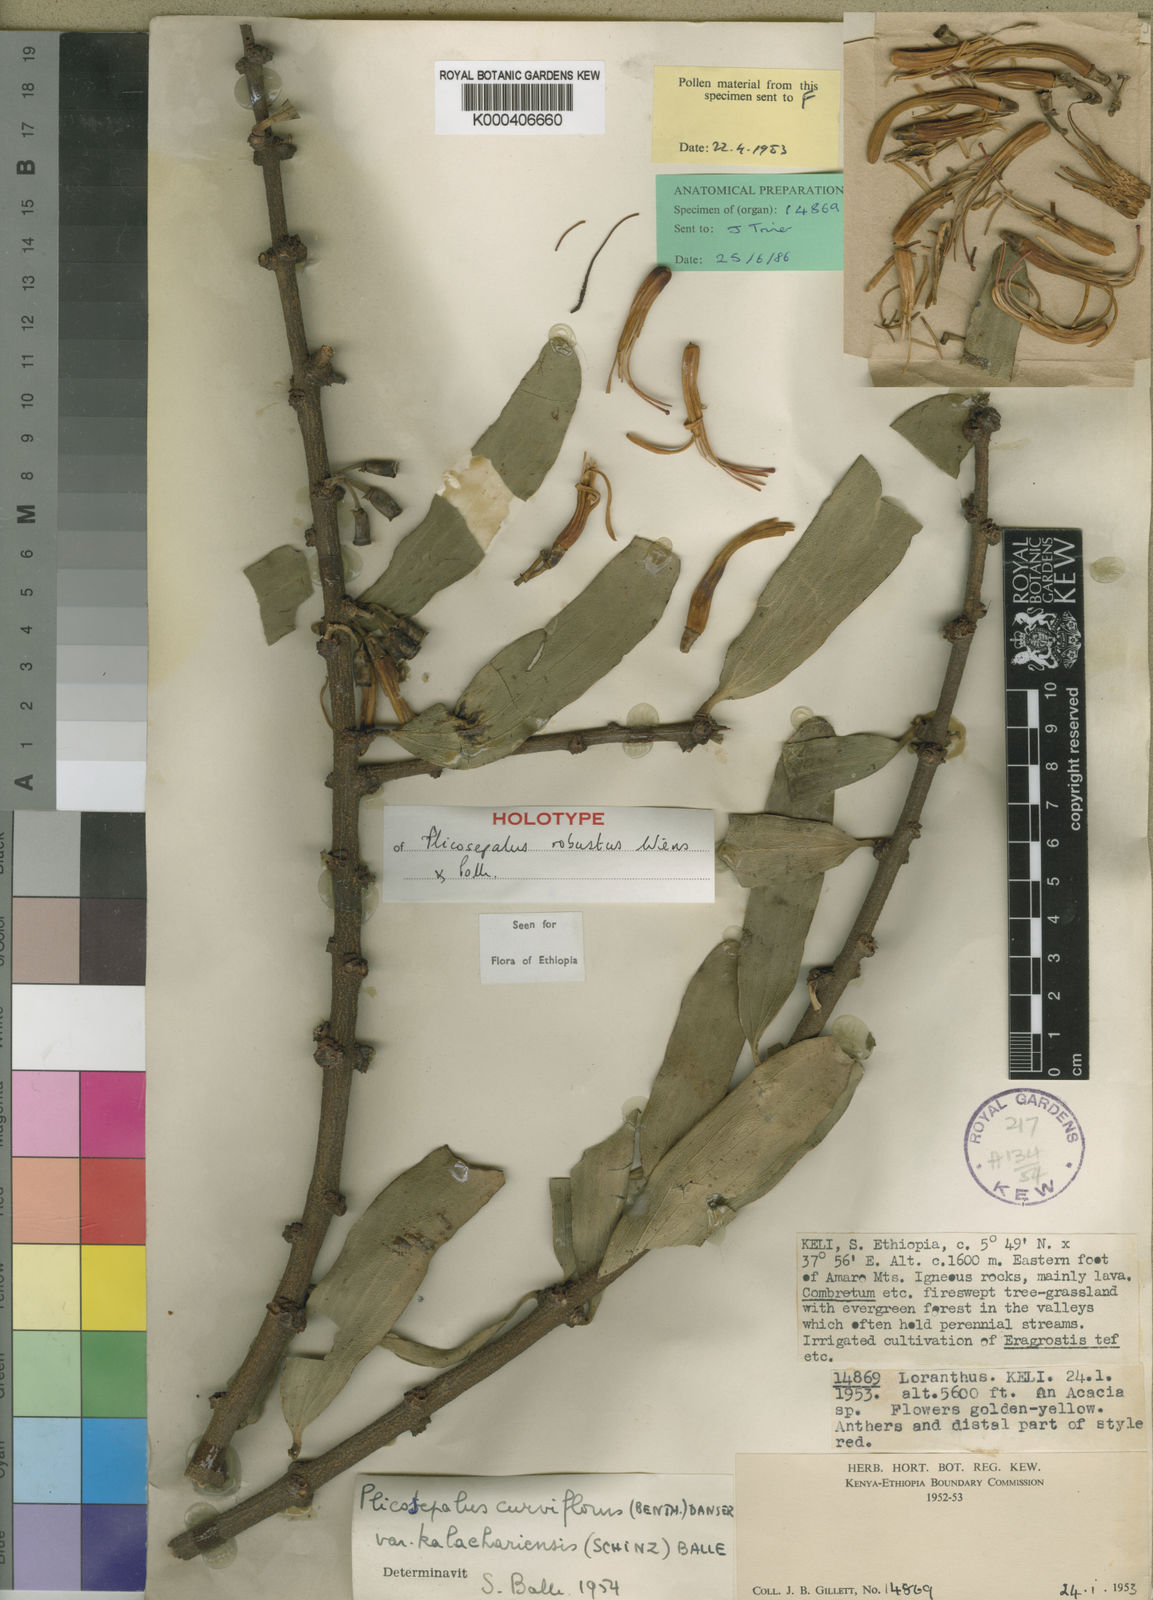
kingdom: Plantae
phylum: Tracheophyta
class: Magnoliopsida
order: Santalales
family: Loranthaceae
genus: Plicosepalus
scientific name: Plicosepalus robustus
